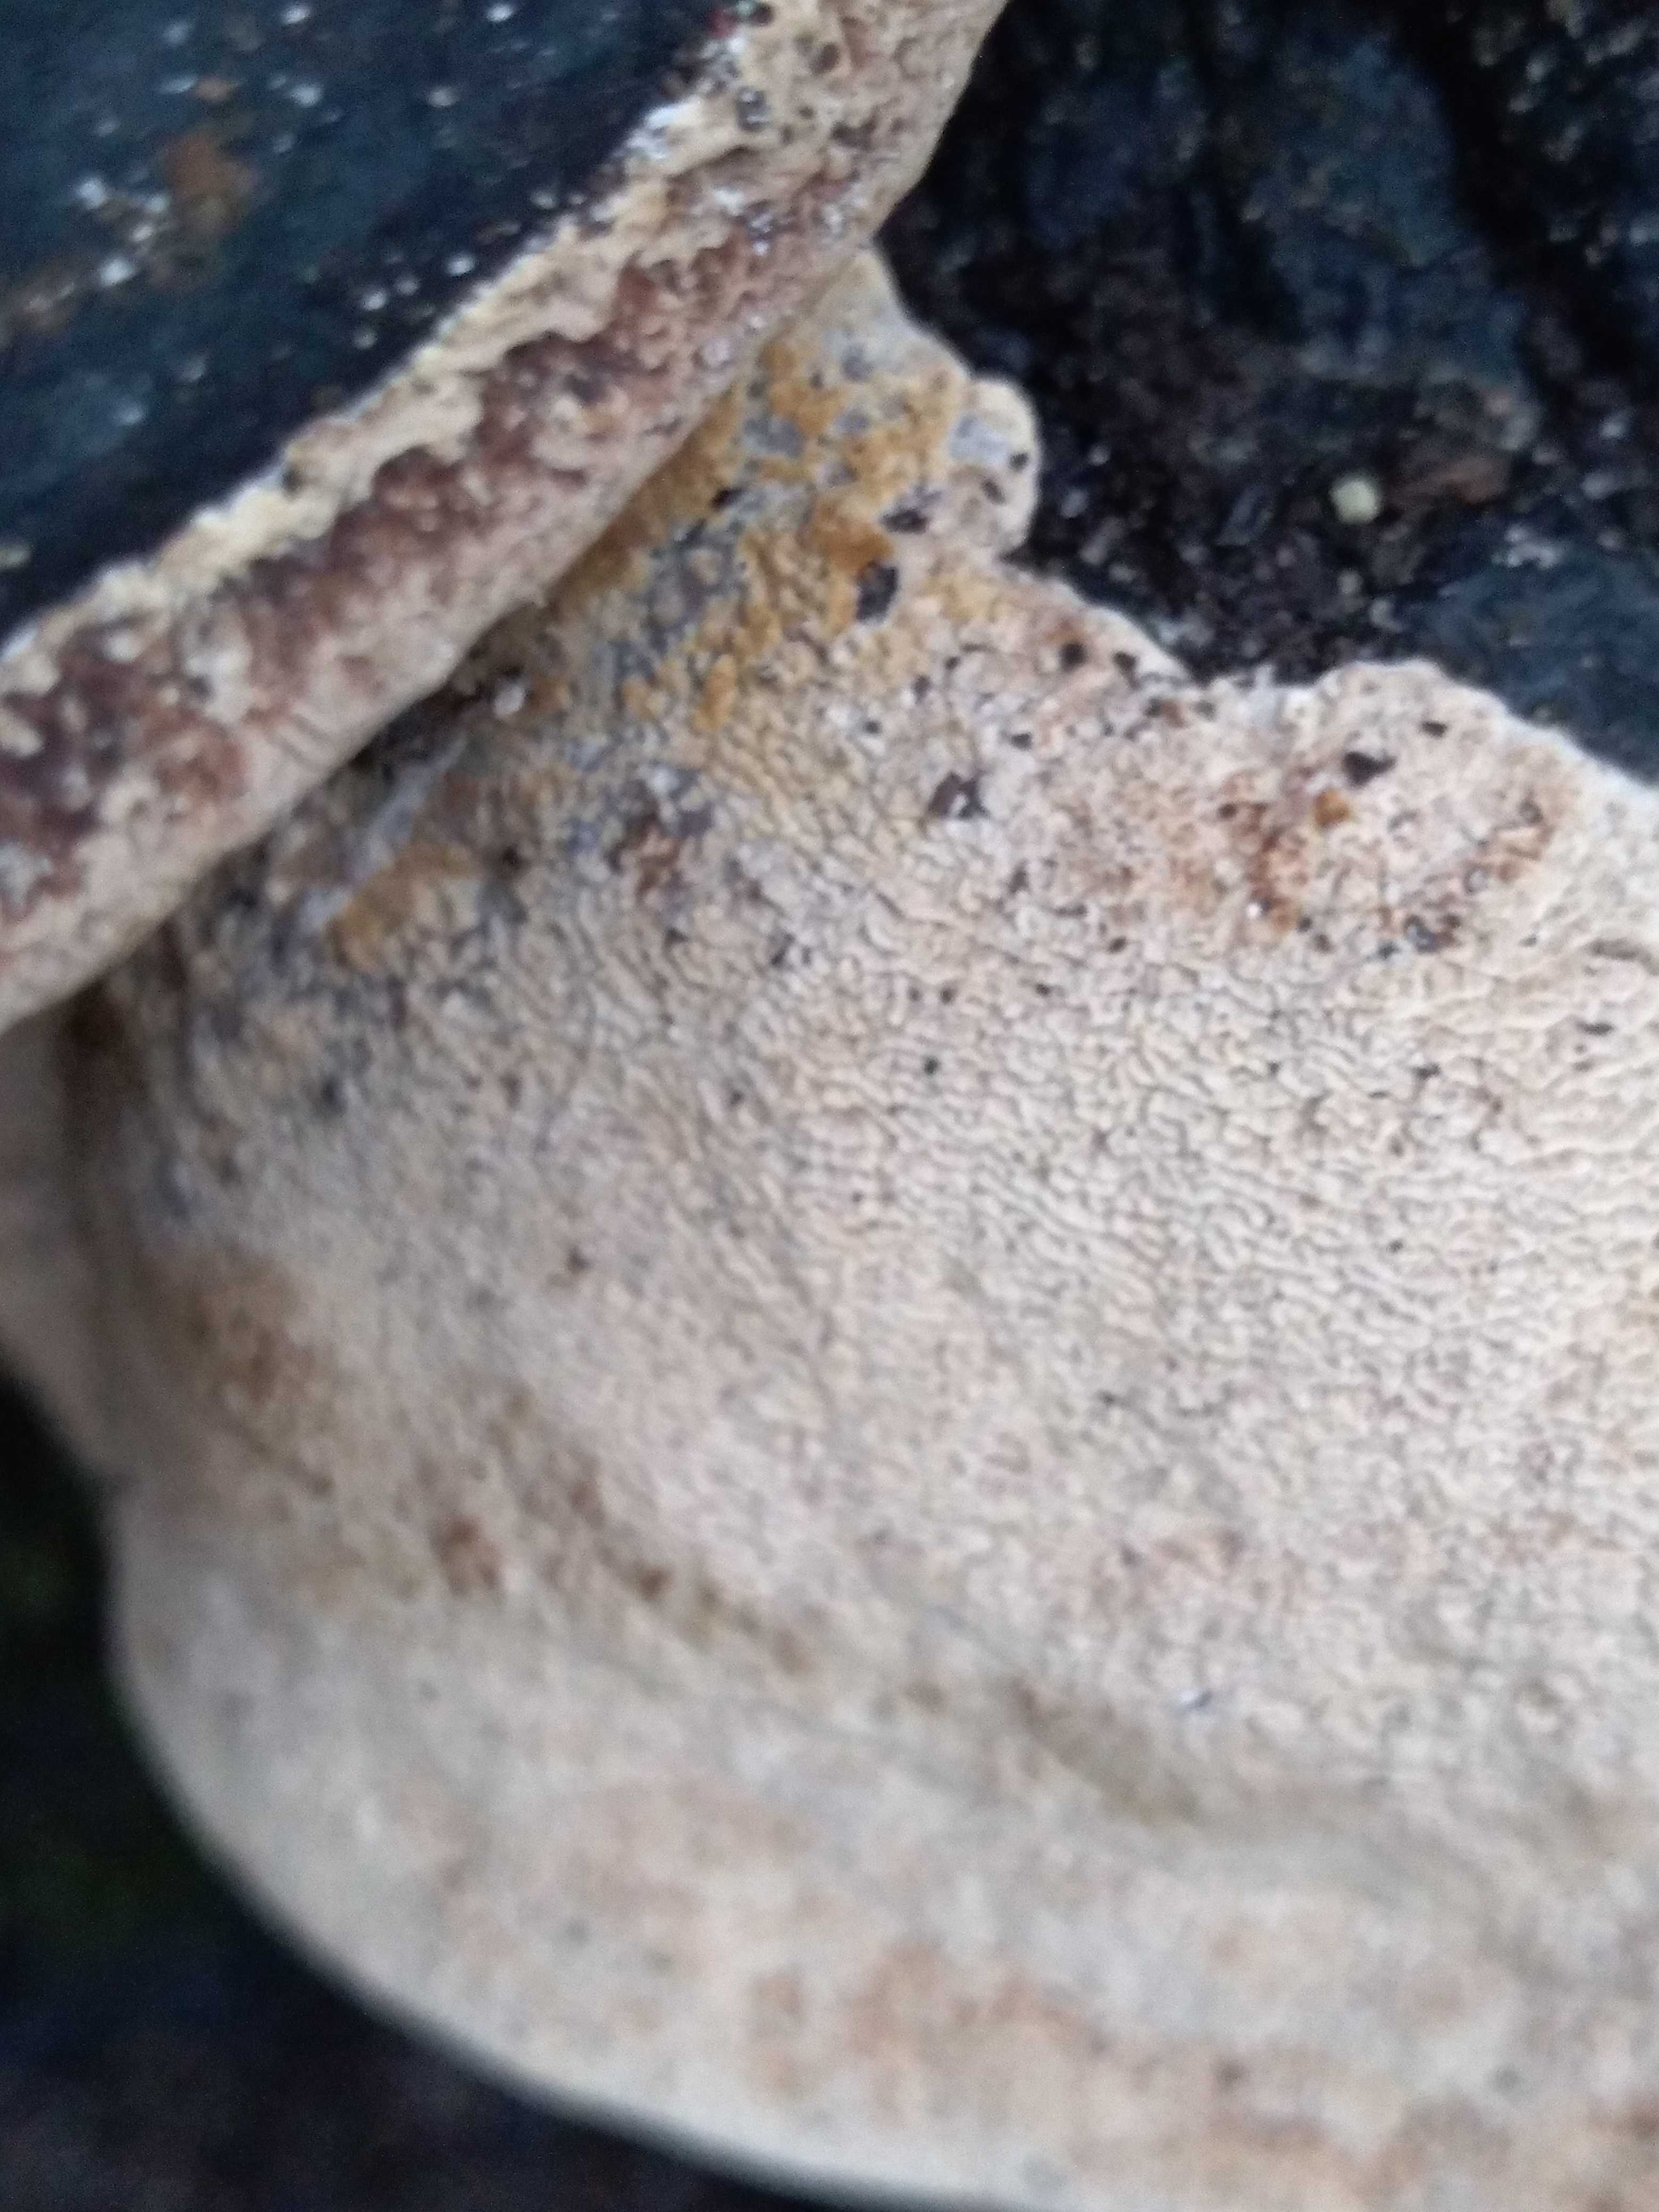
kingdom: Fungi
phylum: Basidiomycota
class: Agaricomycetes
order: Hymenochaetales
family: Hymenochaetaceae
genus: Phellinus
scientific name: Phellinus igniarius
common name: almindelig ildporesvamp
